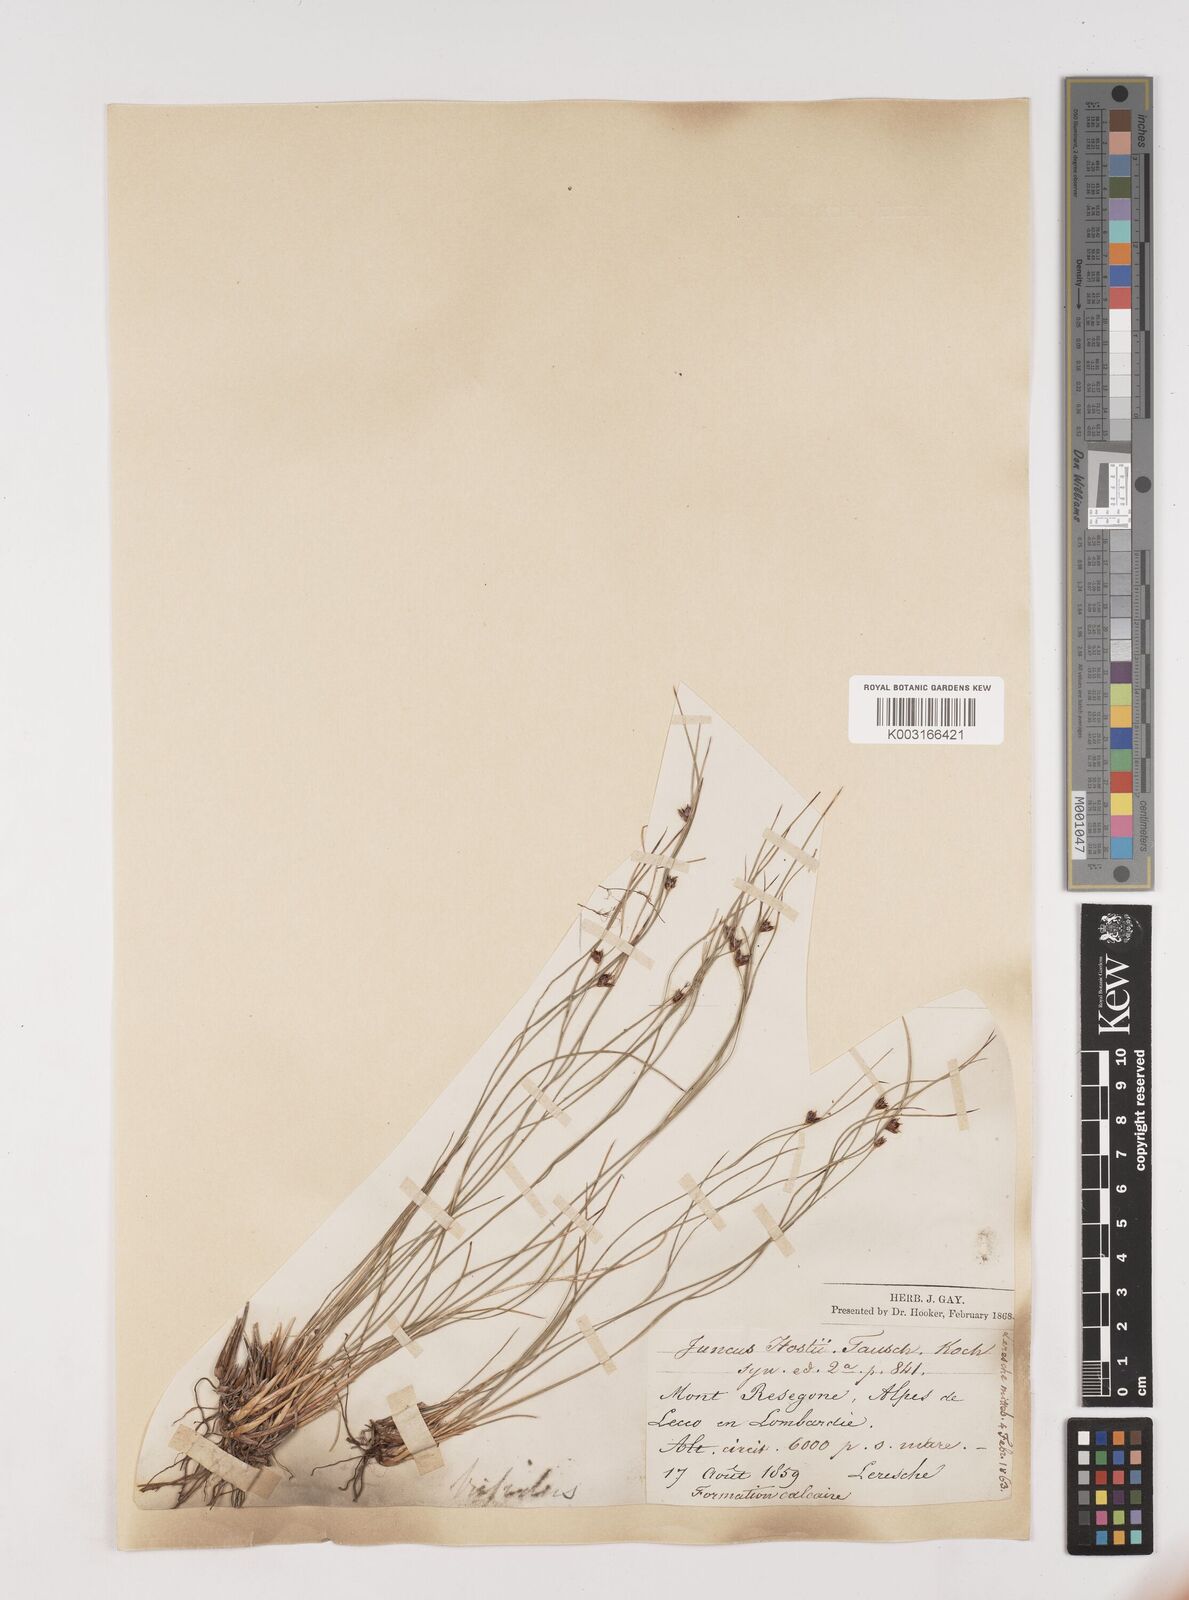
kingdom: Plantae
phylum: Tracheophyta
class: Liliopsida
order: Poales
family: Juncaceae
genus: Oreojuncus
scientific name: Oreojuncus trifidus
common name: Highland rush
